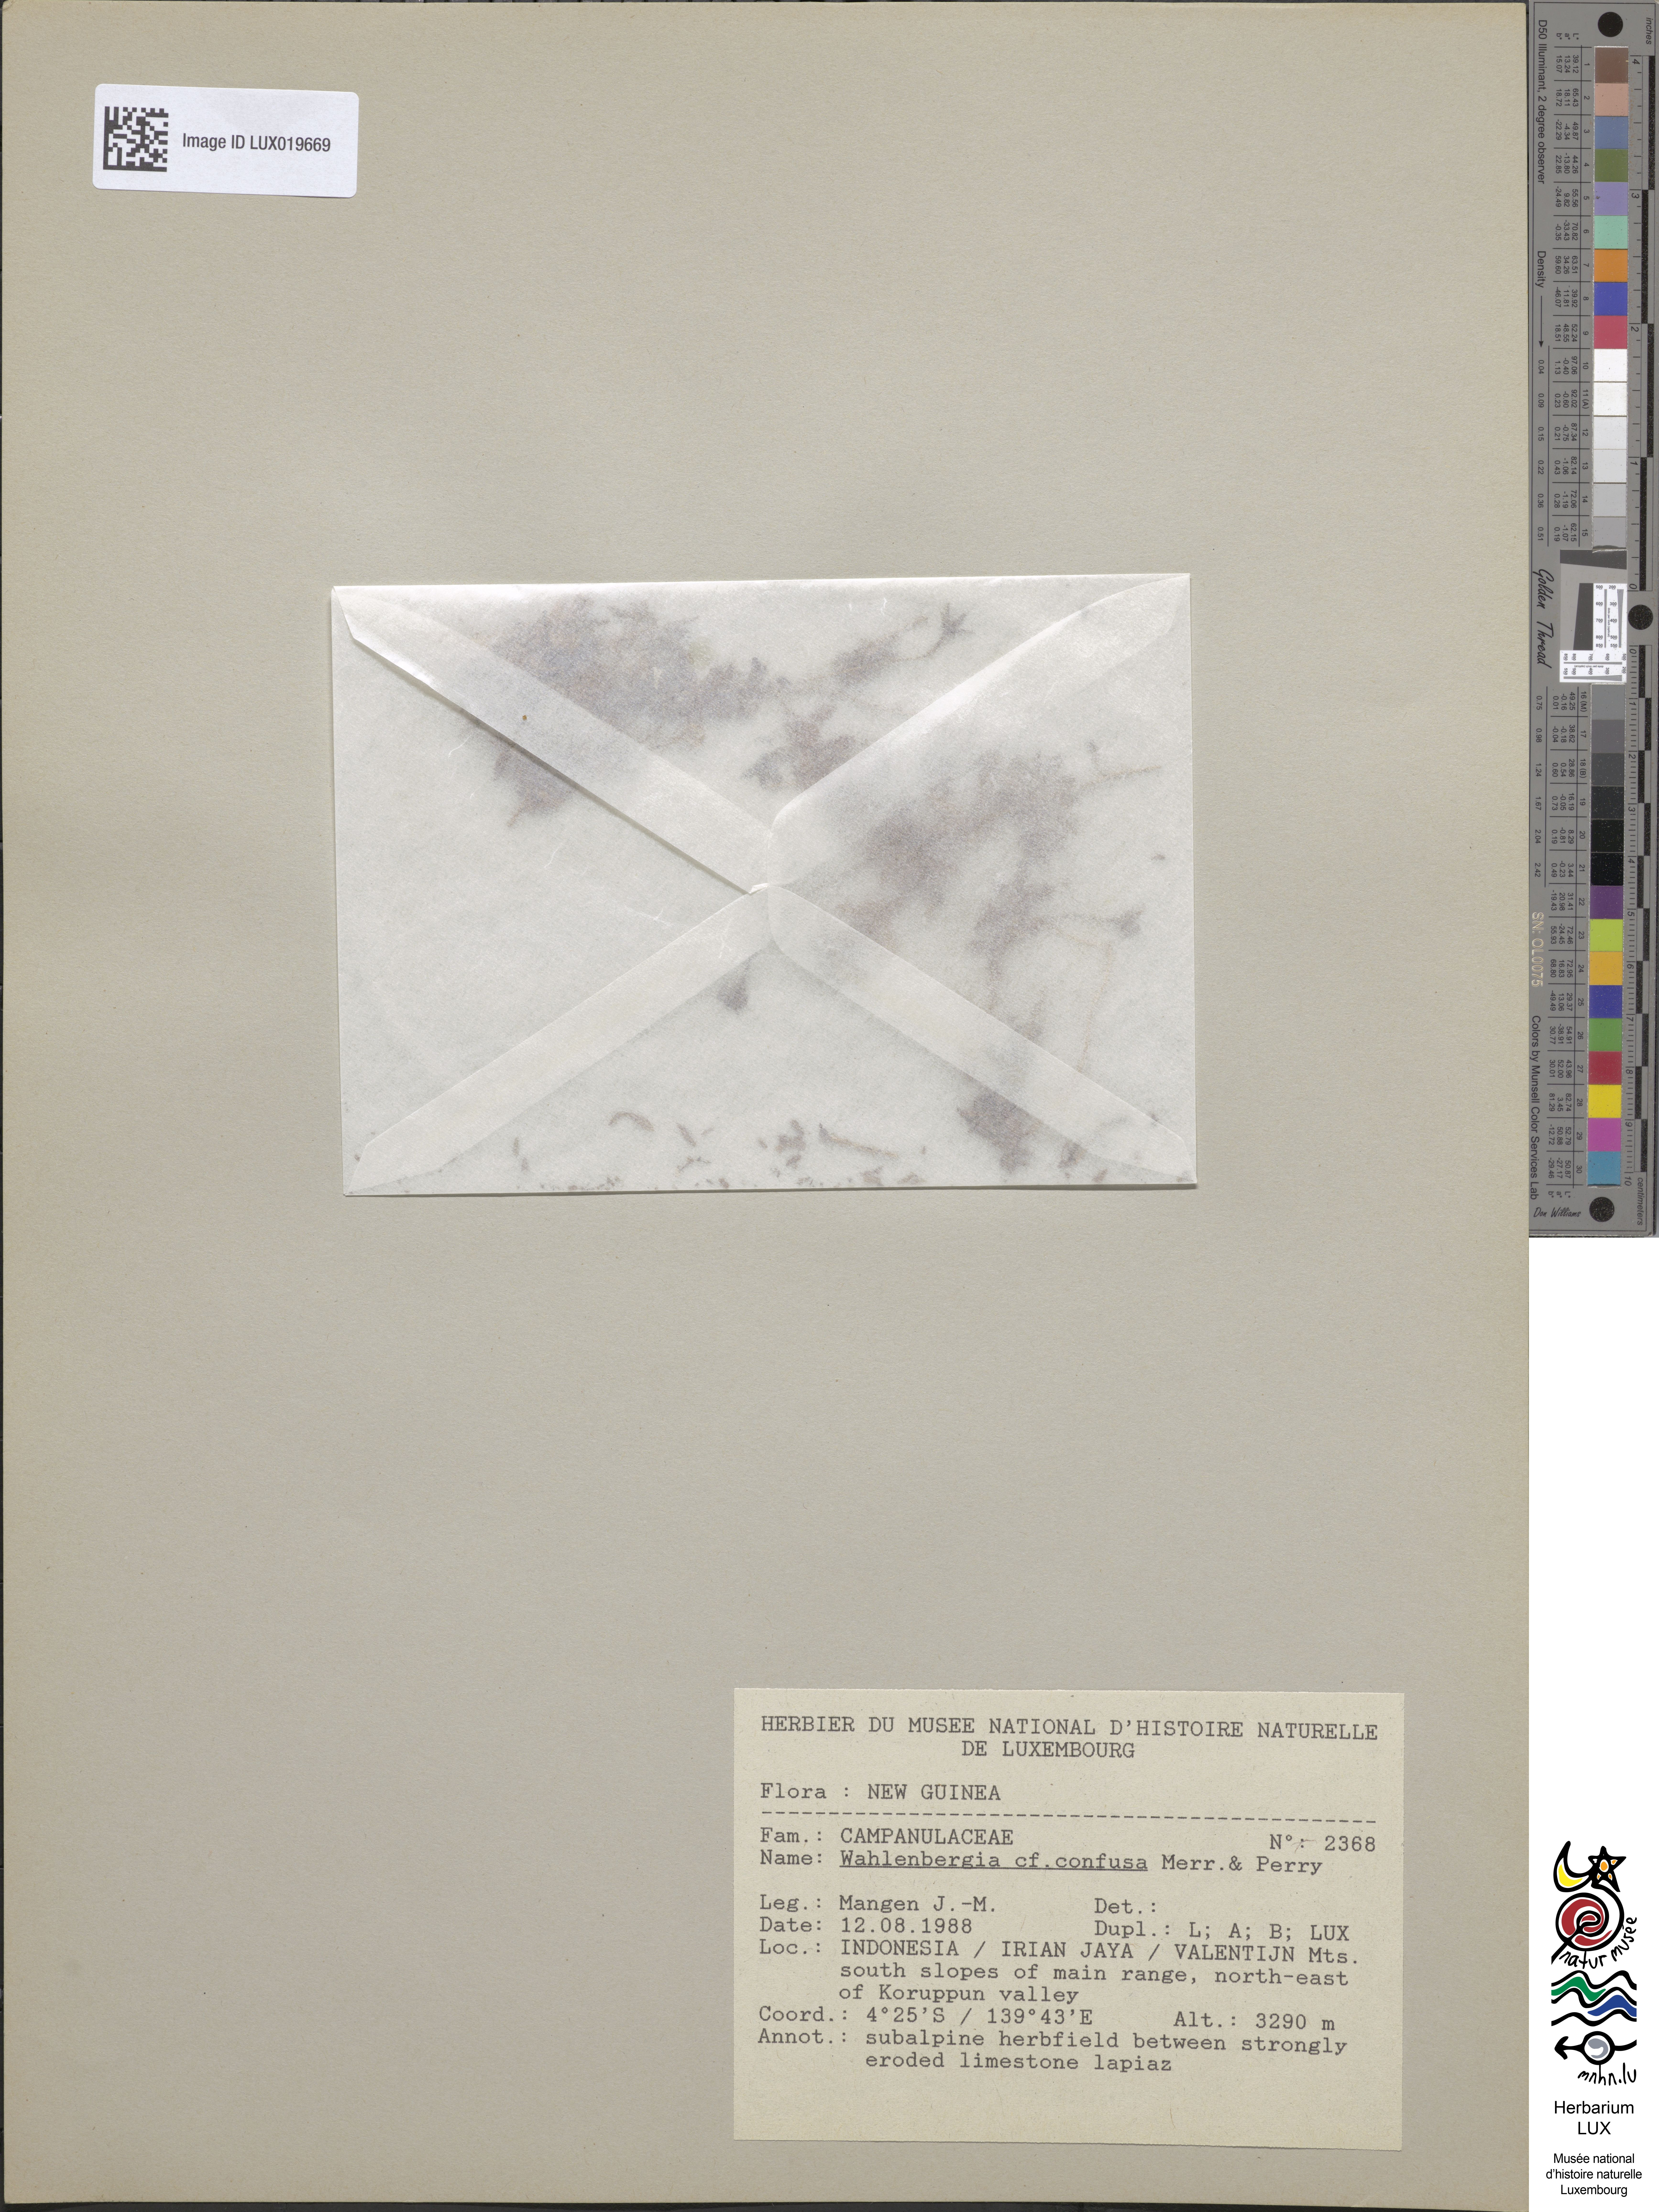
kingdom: Plantae
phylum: Tracheophyta
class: Magnoliopsida
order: Asterales
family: Campanulaceae
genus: Wahlenbergia
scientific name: Wahlenbergia confusa
